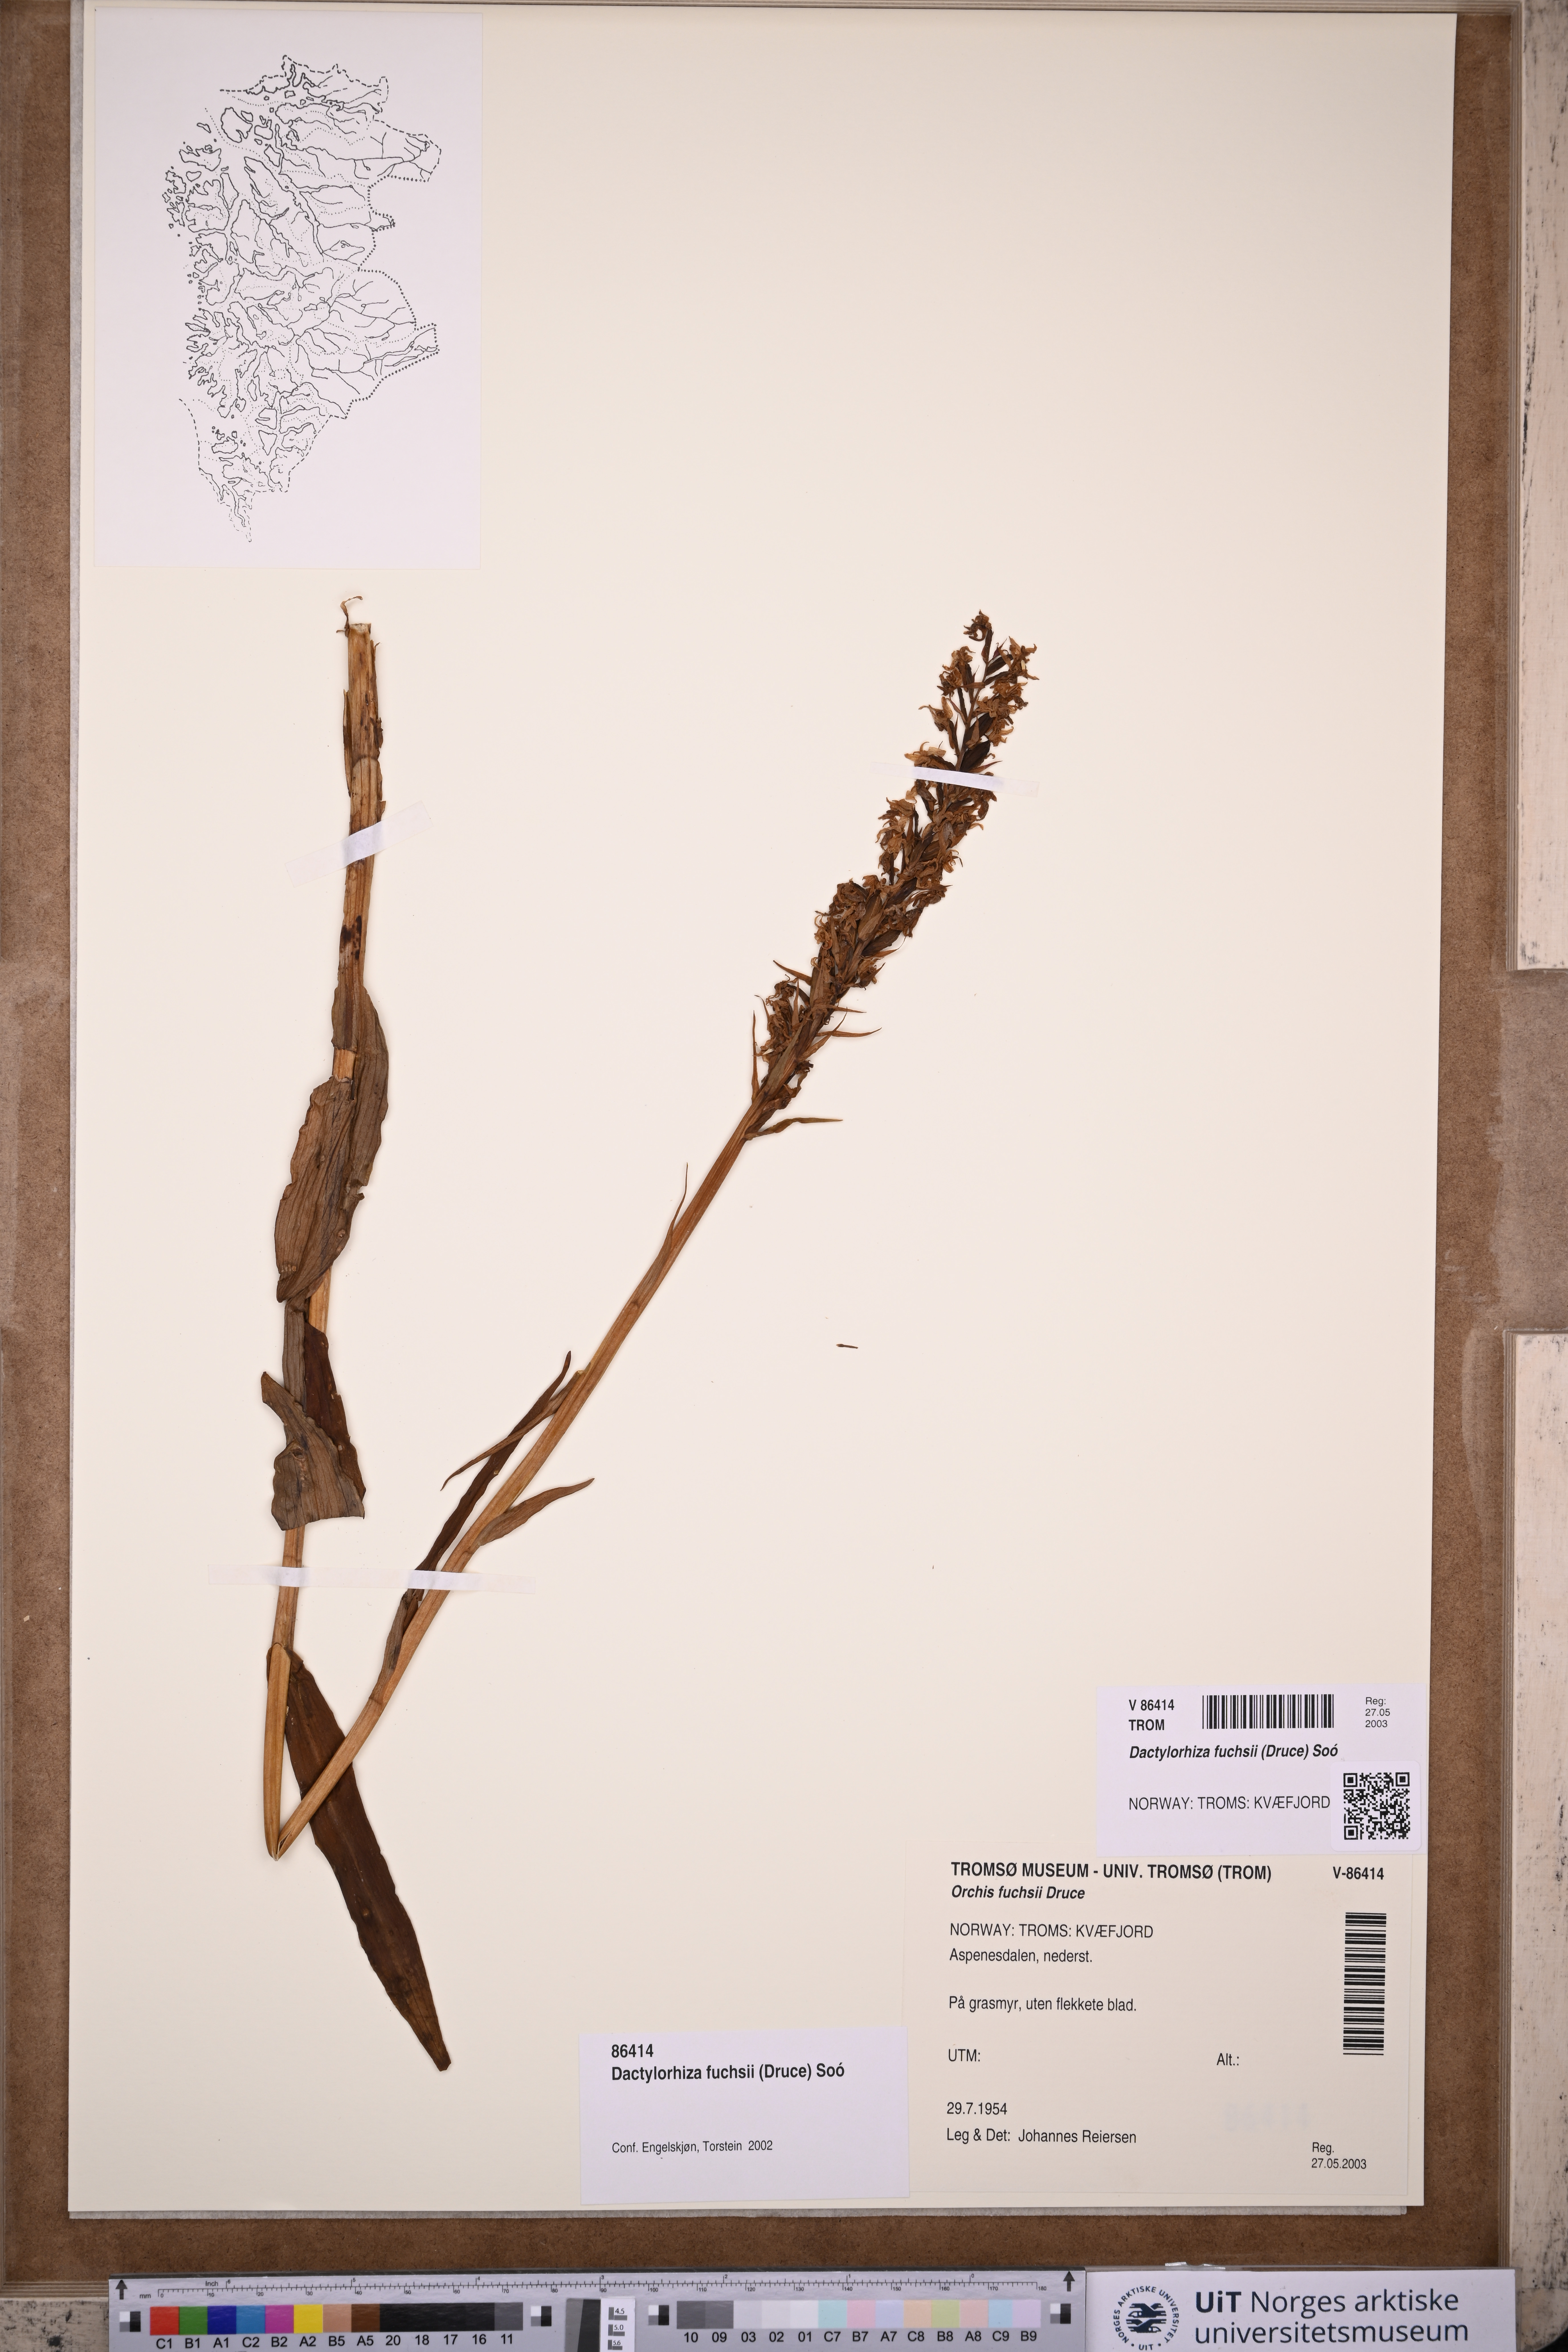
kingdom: Plantae
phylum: Tracheophyta
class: Liliopsida
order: Asparagales
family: Orchidaceae
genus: Dactylorhiza
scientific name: Dactylorhiza maculata
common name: Heath spotted-orchid
